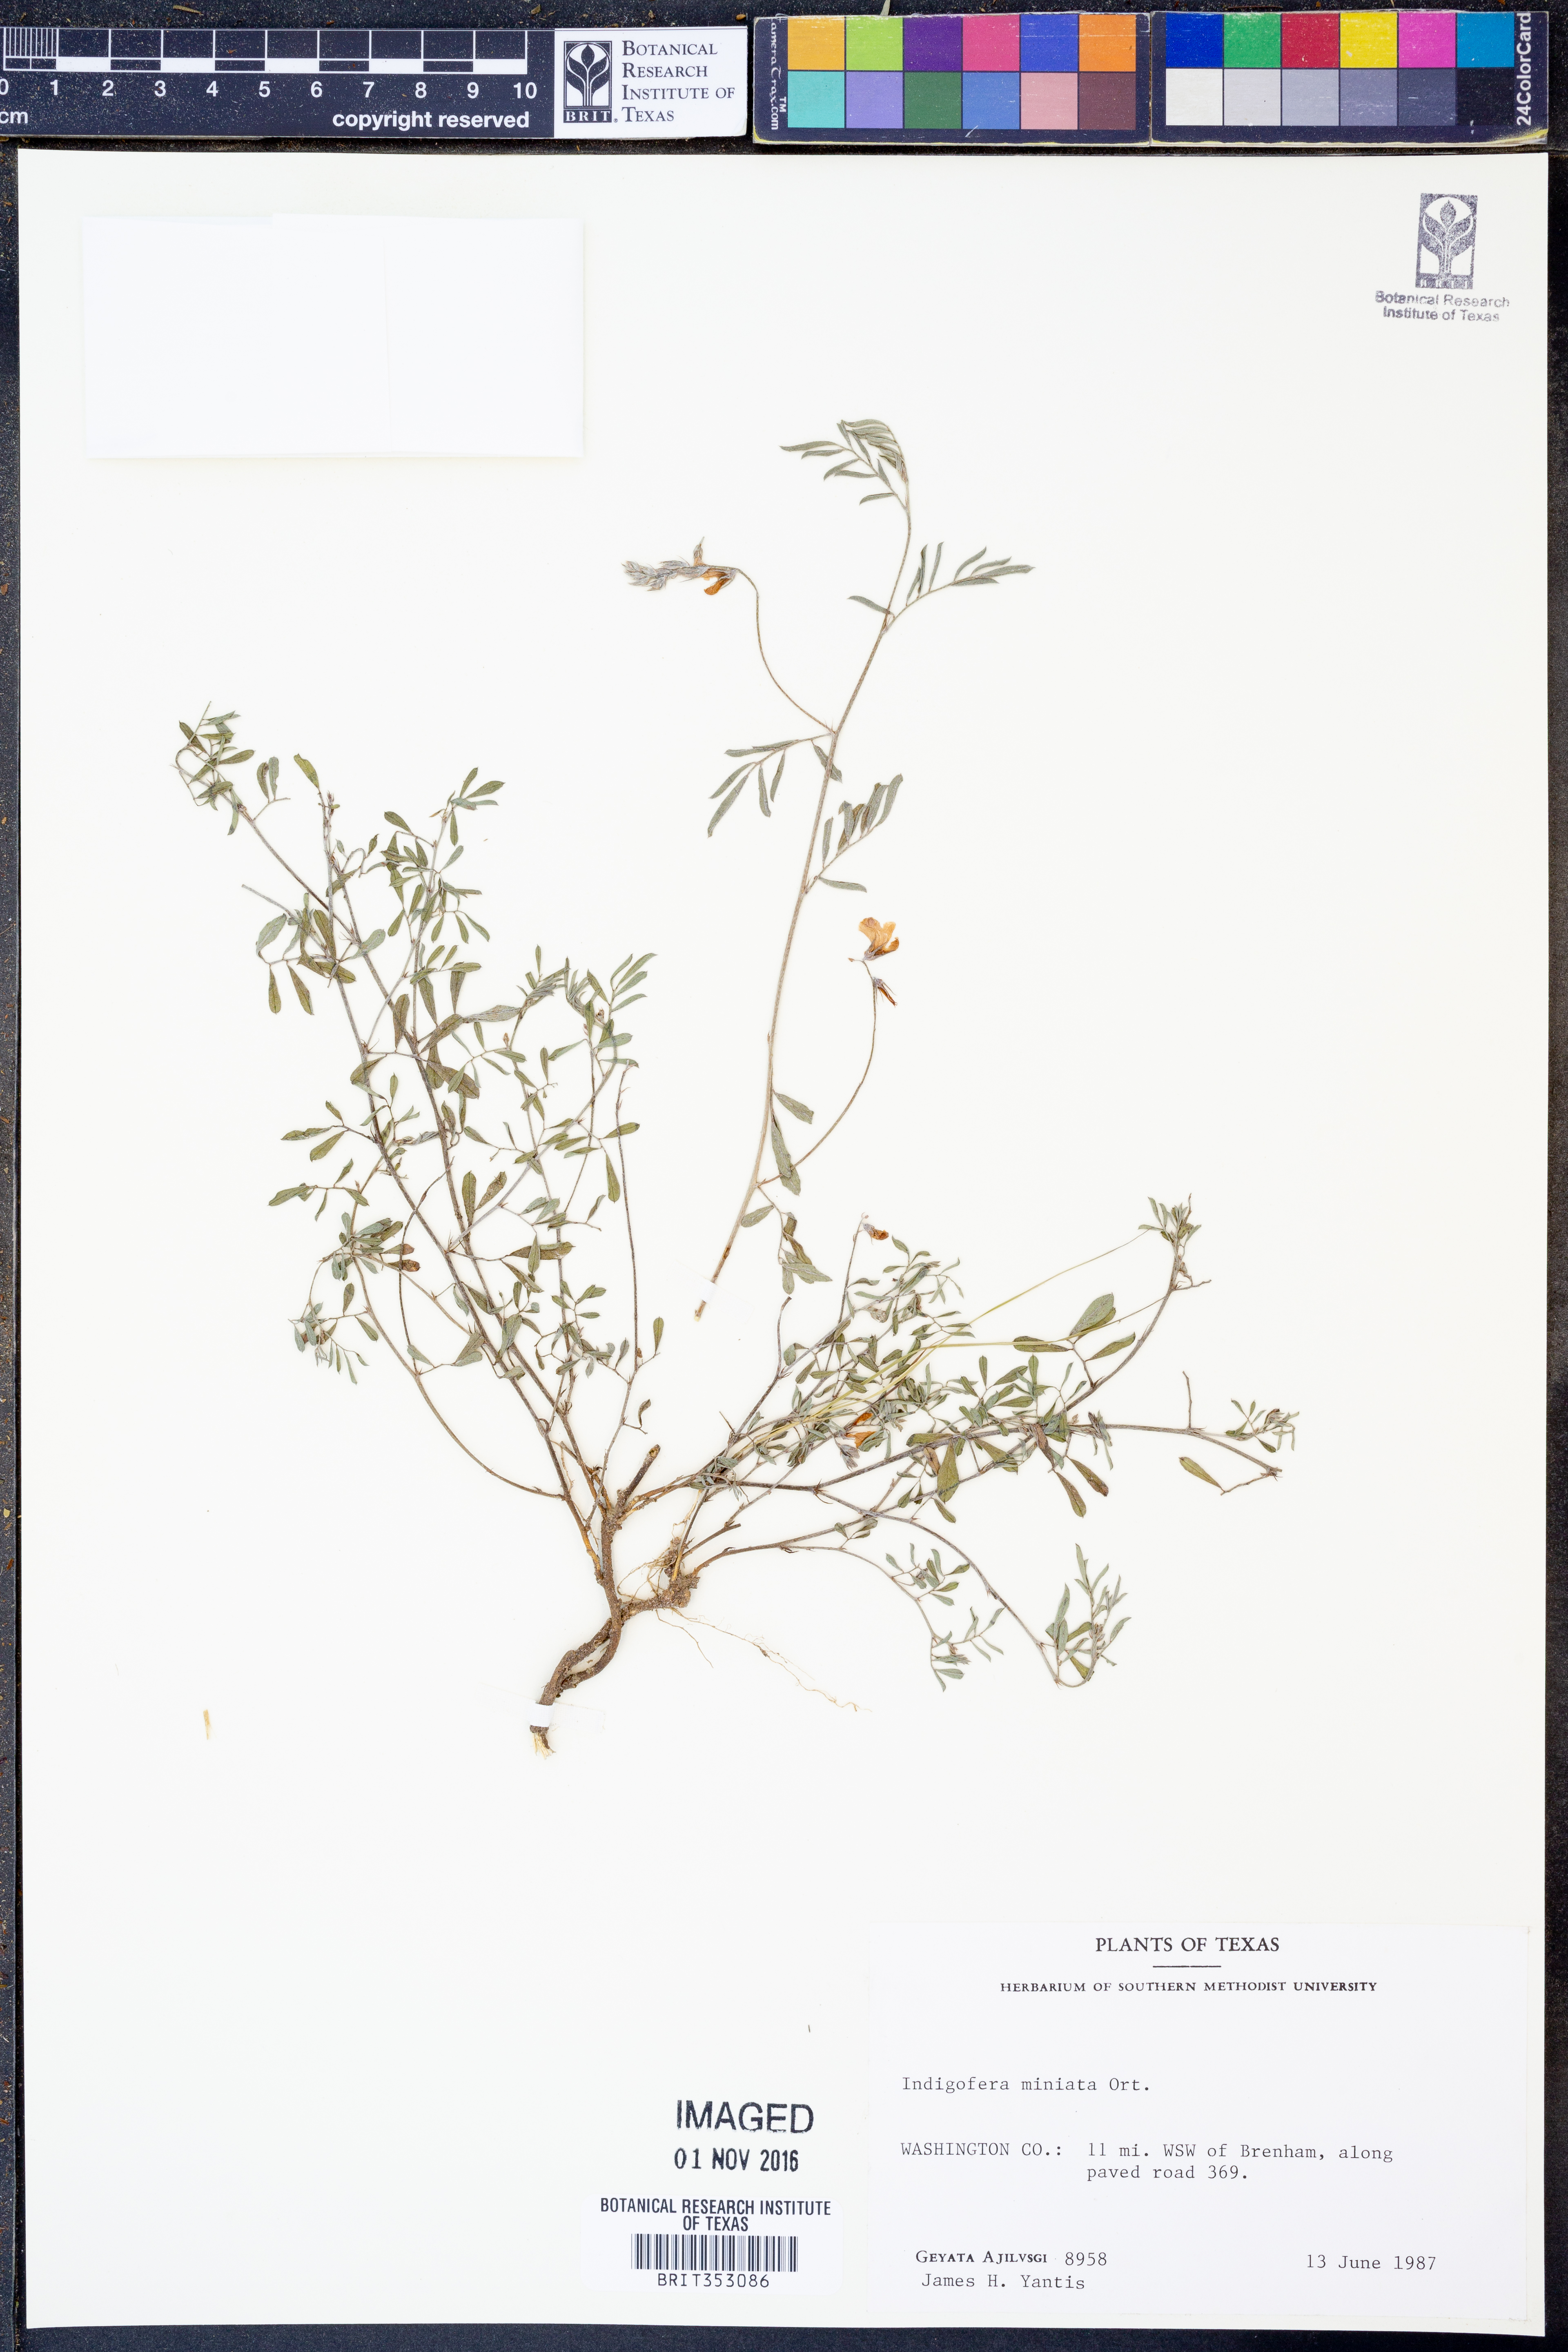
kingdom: Plantae
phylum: Tracheophyta
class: Magnoliopsida
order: Fabales
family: Fabaceae
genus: Indigofera
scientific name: Indigofera miniata
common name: Coast indigo
